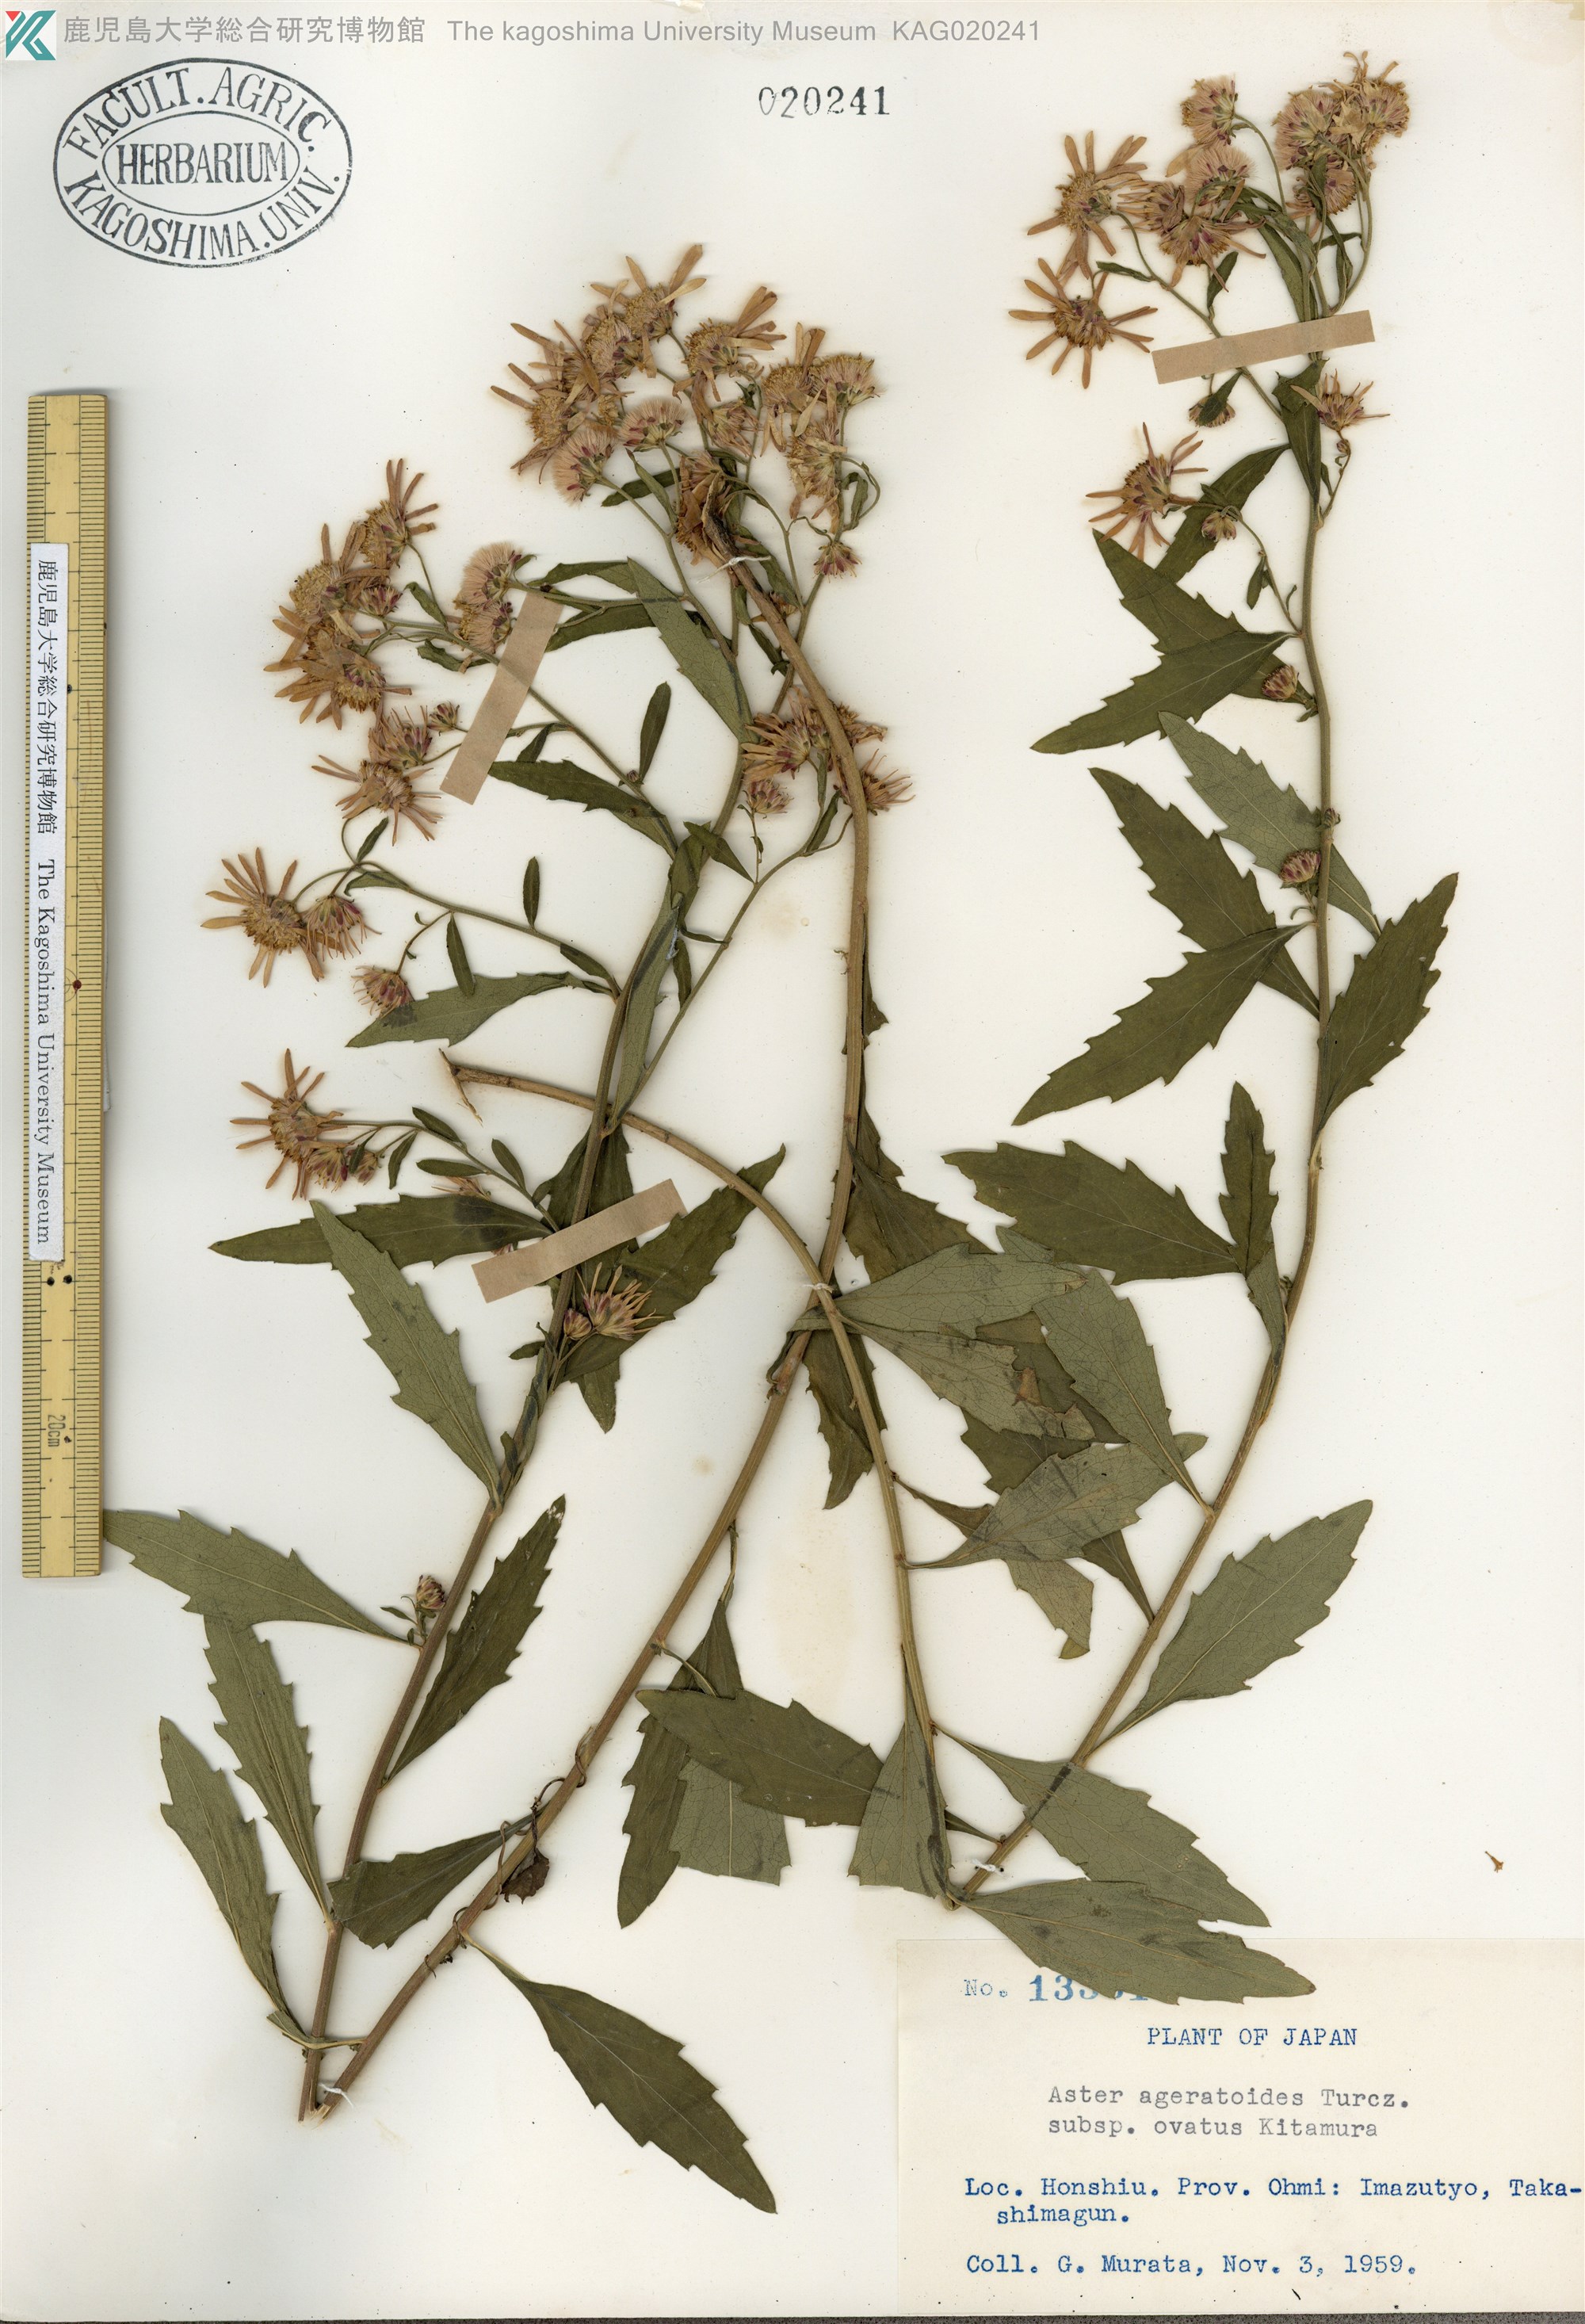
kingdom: Plantae
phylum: Tracheophyta
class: Magnoliopsida
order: Asterales
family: Asteraceae
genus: Aster
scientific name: Aster microcephalus
